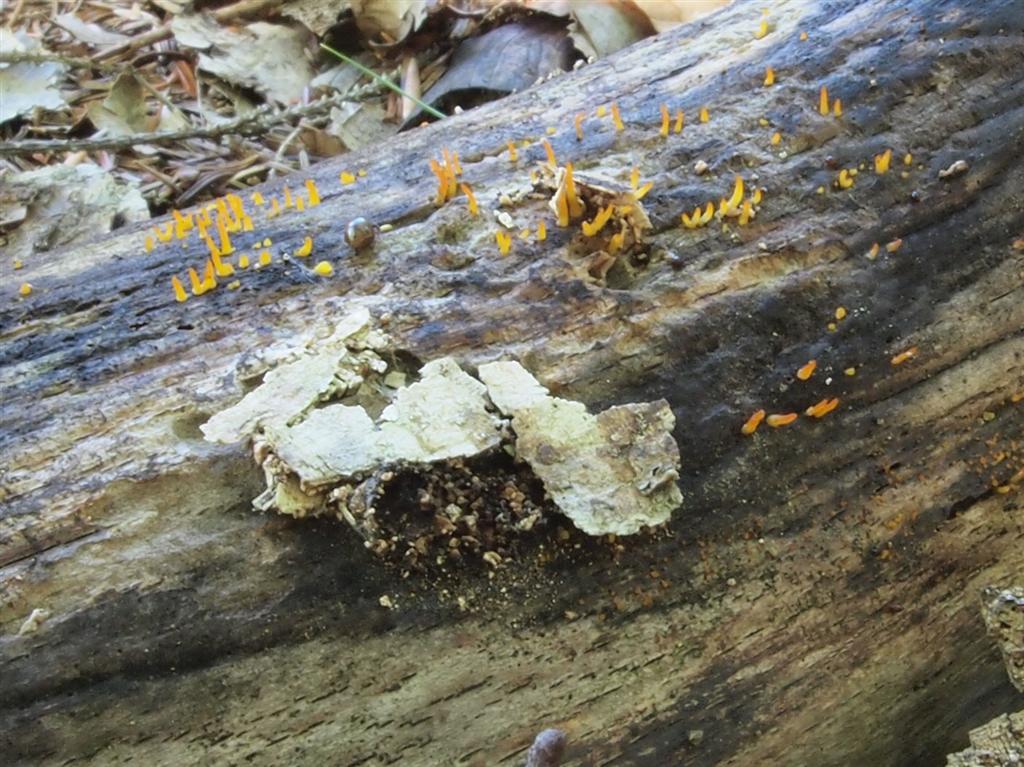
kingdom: Fungi
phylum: Basidiomycota
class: Dacrymycetes
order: Dacrymycetales
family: Dacrymycetaceae
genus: Calocera
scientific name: Calocera cornea
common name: liden guldgaffel
